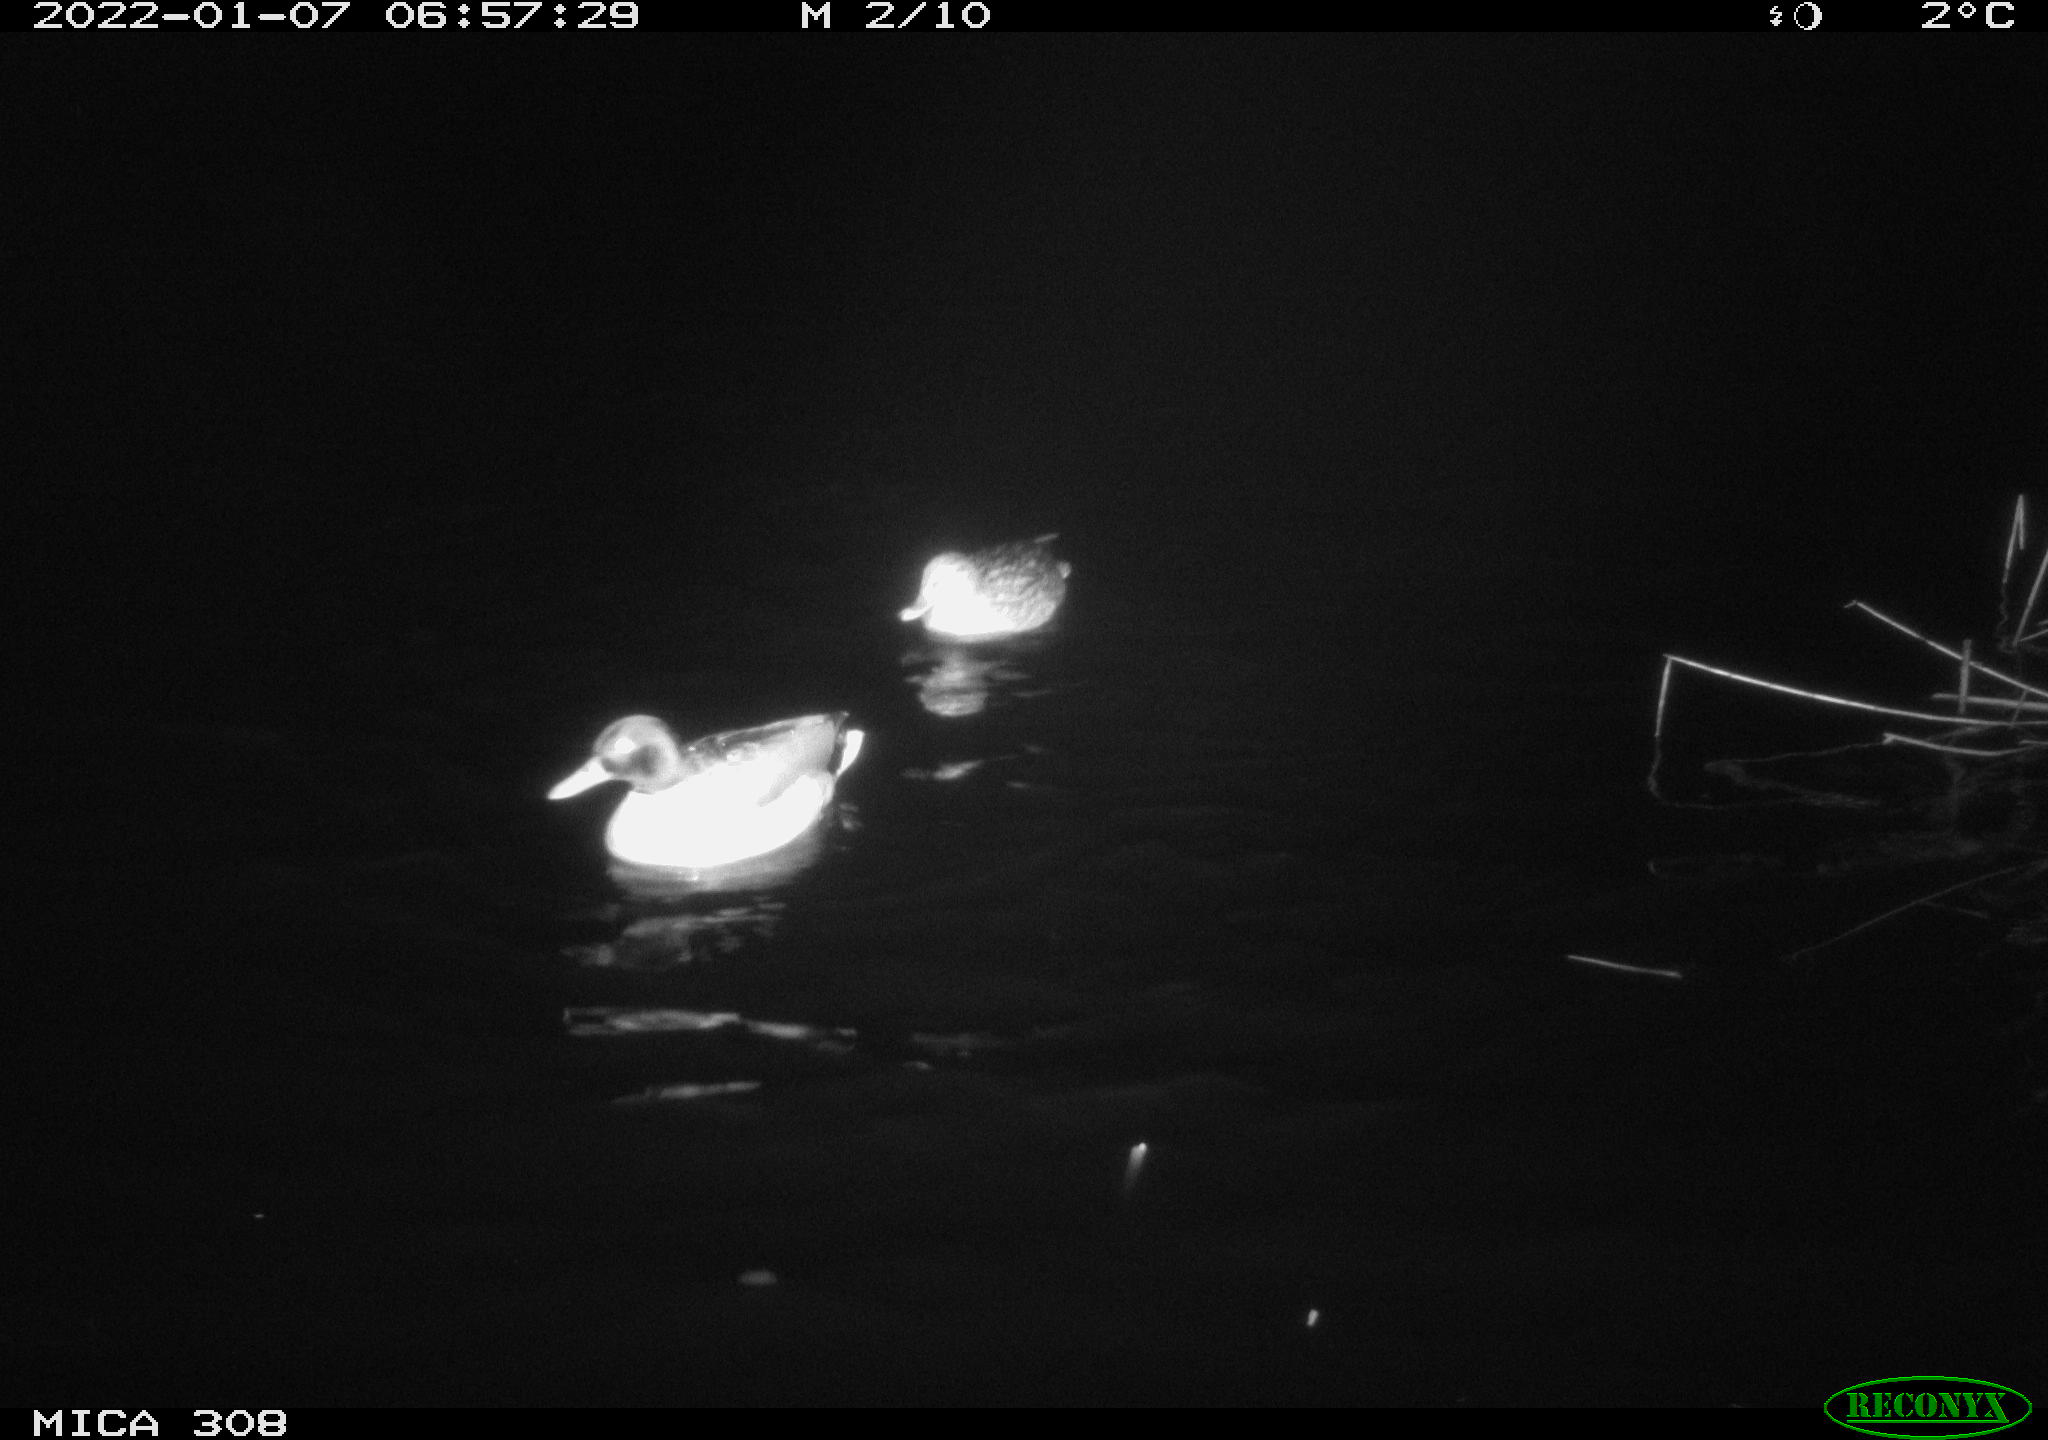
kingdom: Animalia
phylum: Chordata
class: Aves
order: Anseriformes
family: Anatidae
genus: Anas
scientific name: Anas
